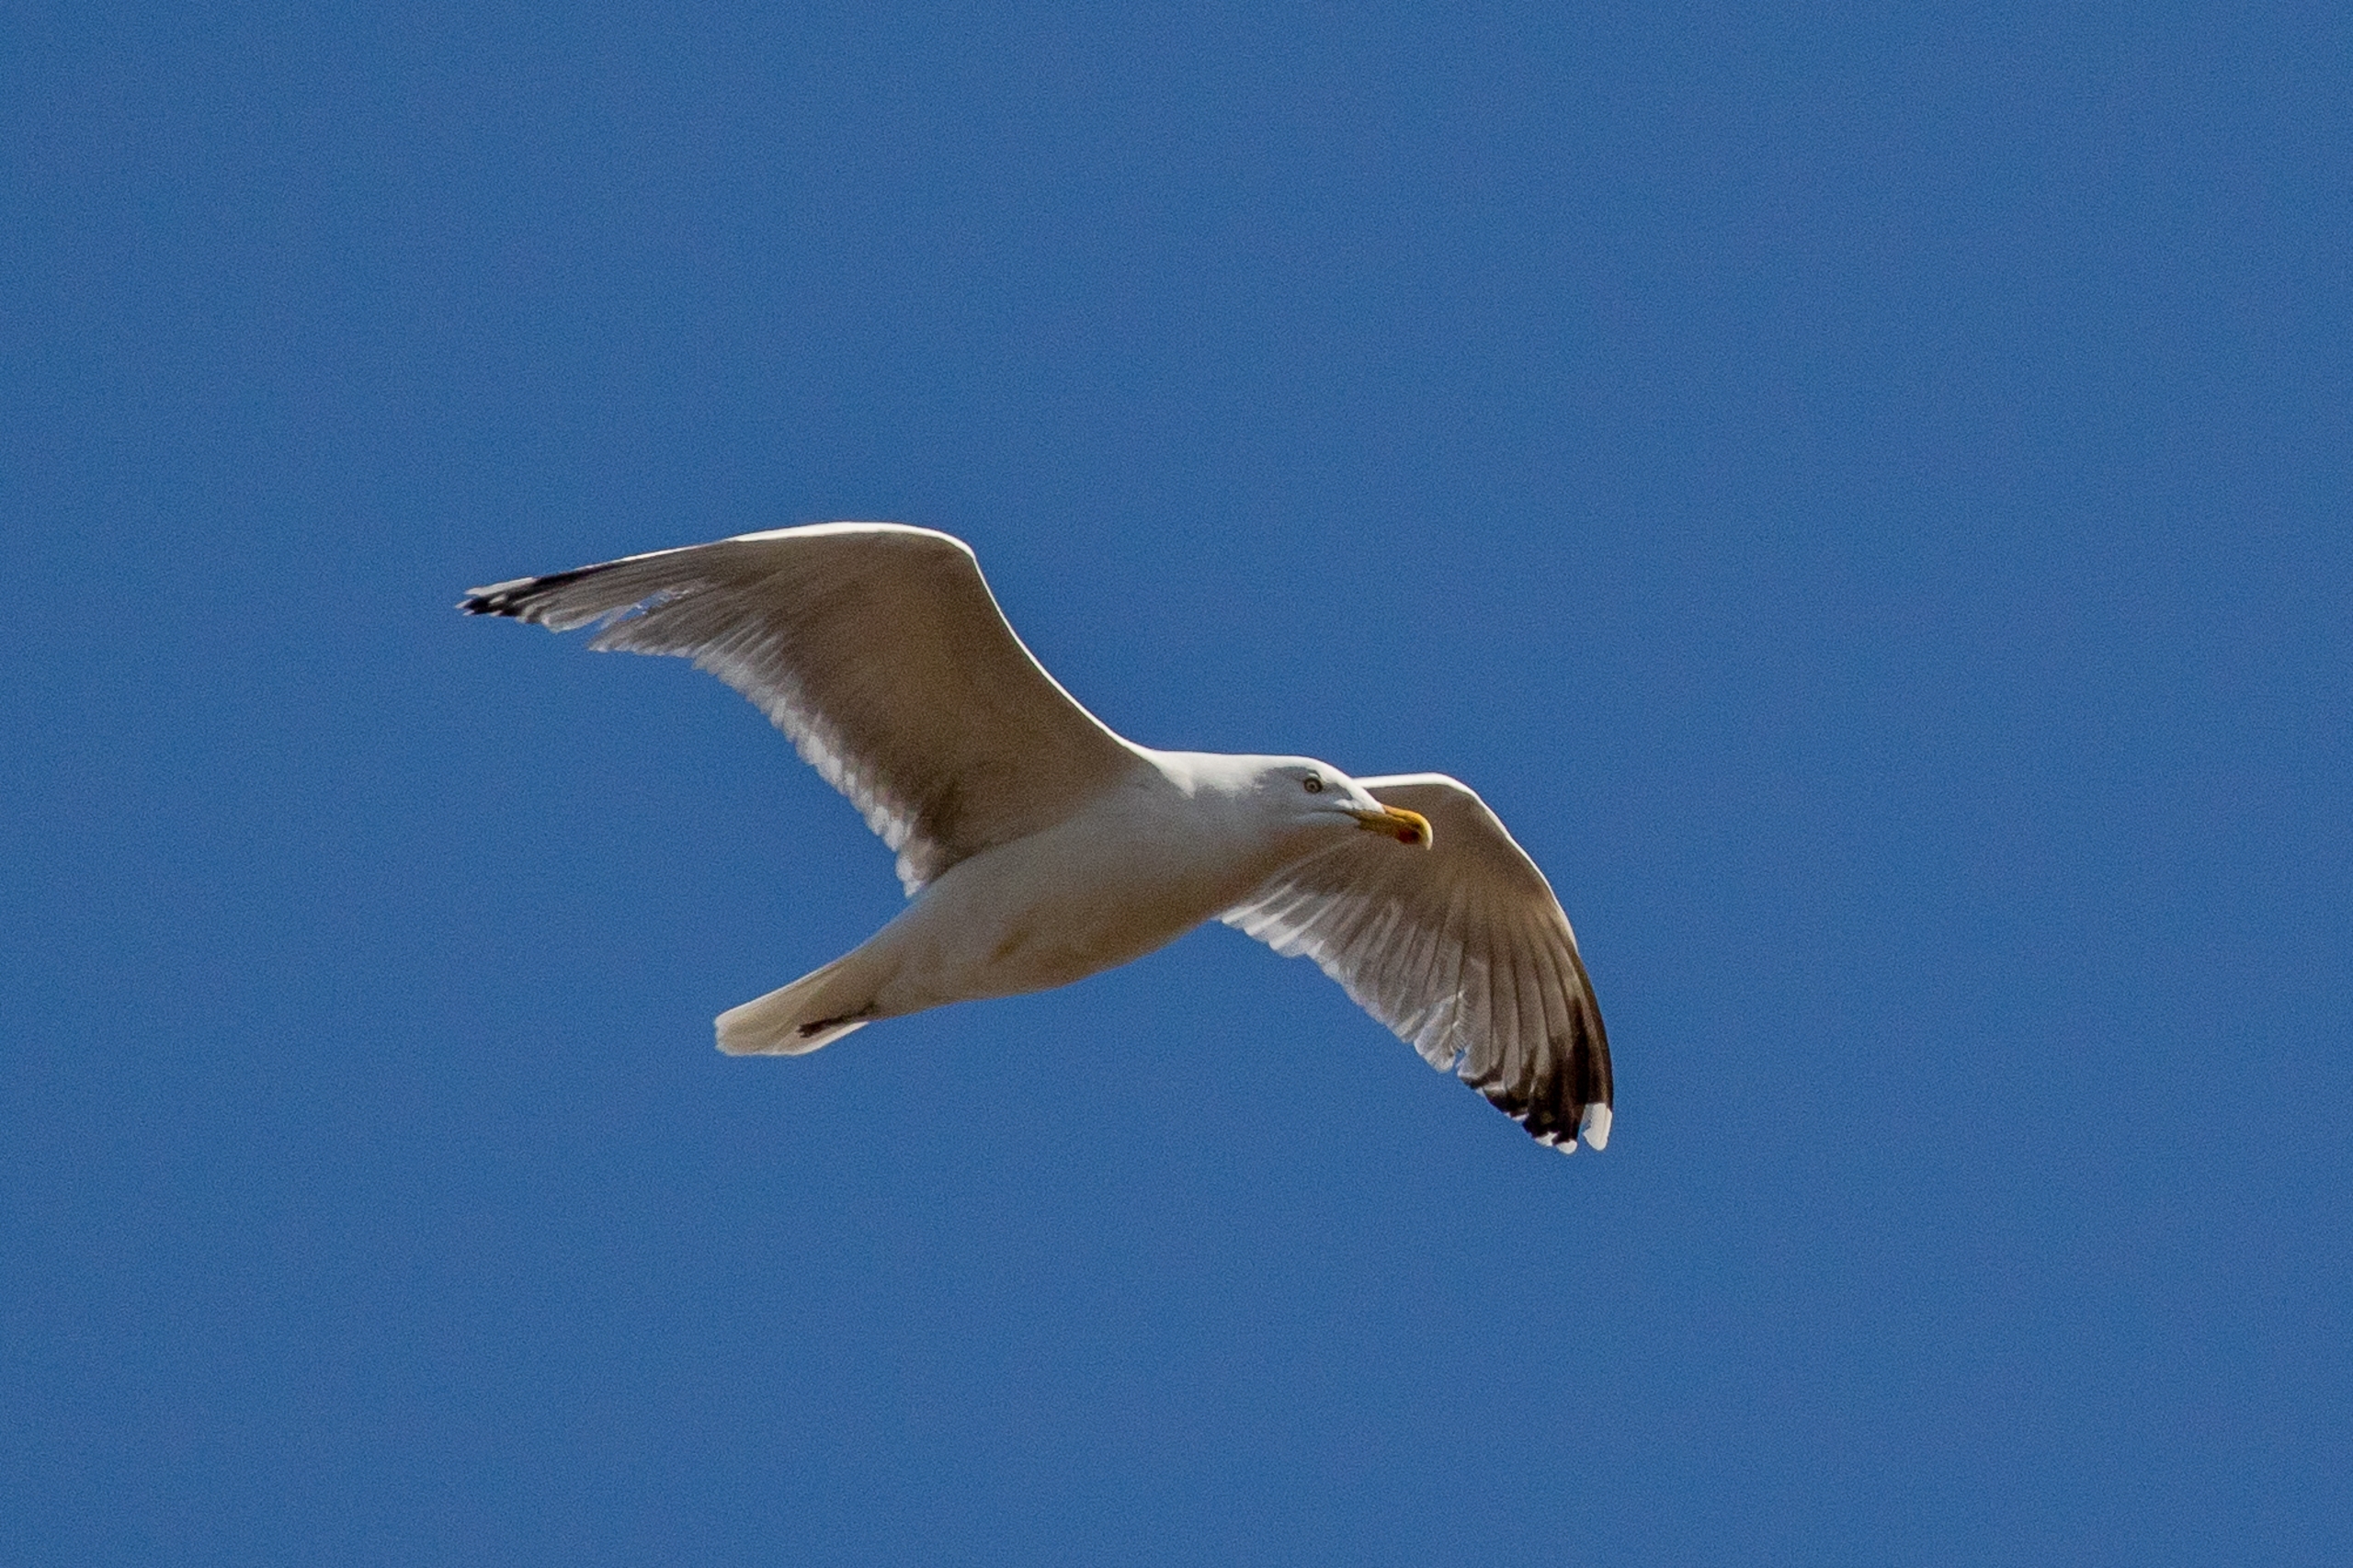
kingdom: Animalia
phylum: Chordata
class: Aves
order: Charadriiformes
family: Laridae
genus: Larus
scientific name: Larus argentatus
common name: Sølvmåge
